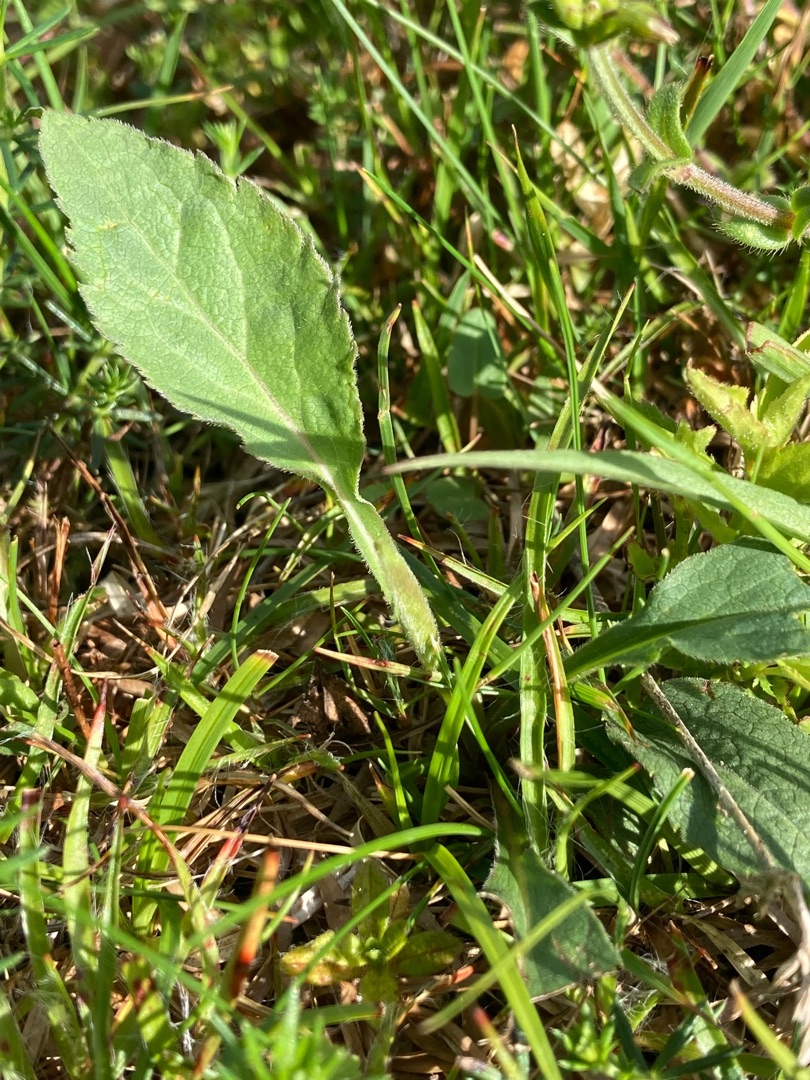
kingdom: Plantae
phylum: Tracheophyta
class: Magnoliopsida
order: Asterales
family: Asteraceae
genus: Solidago
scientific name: Solidago virgaurea
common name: Almindelig gyldenris
